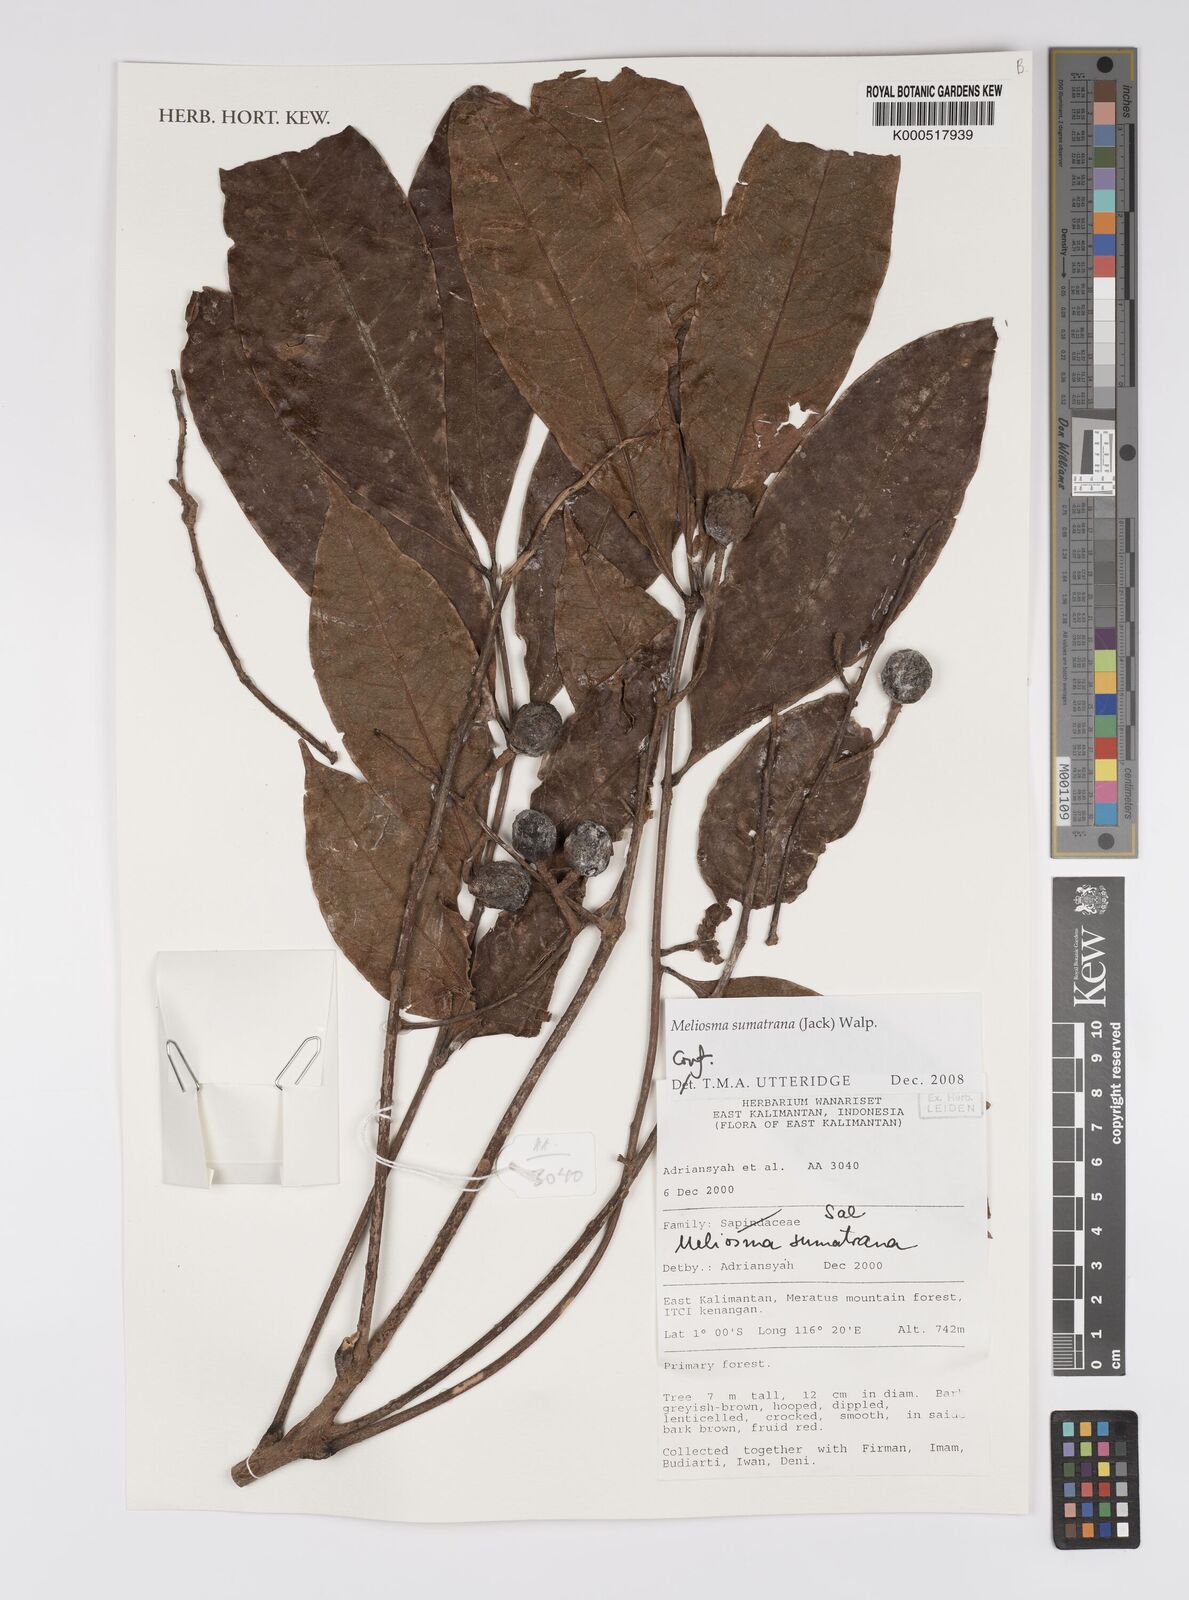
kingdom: Plantae
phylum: Tracheophyta
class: Magnoliopsida
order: Proteales
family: Sabiaceae
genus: Meliosma
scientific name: Meliosma sumatrana
